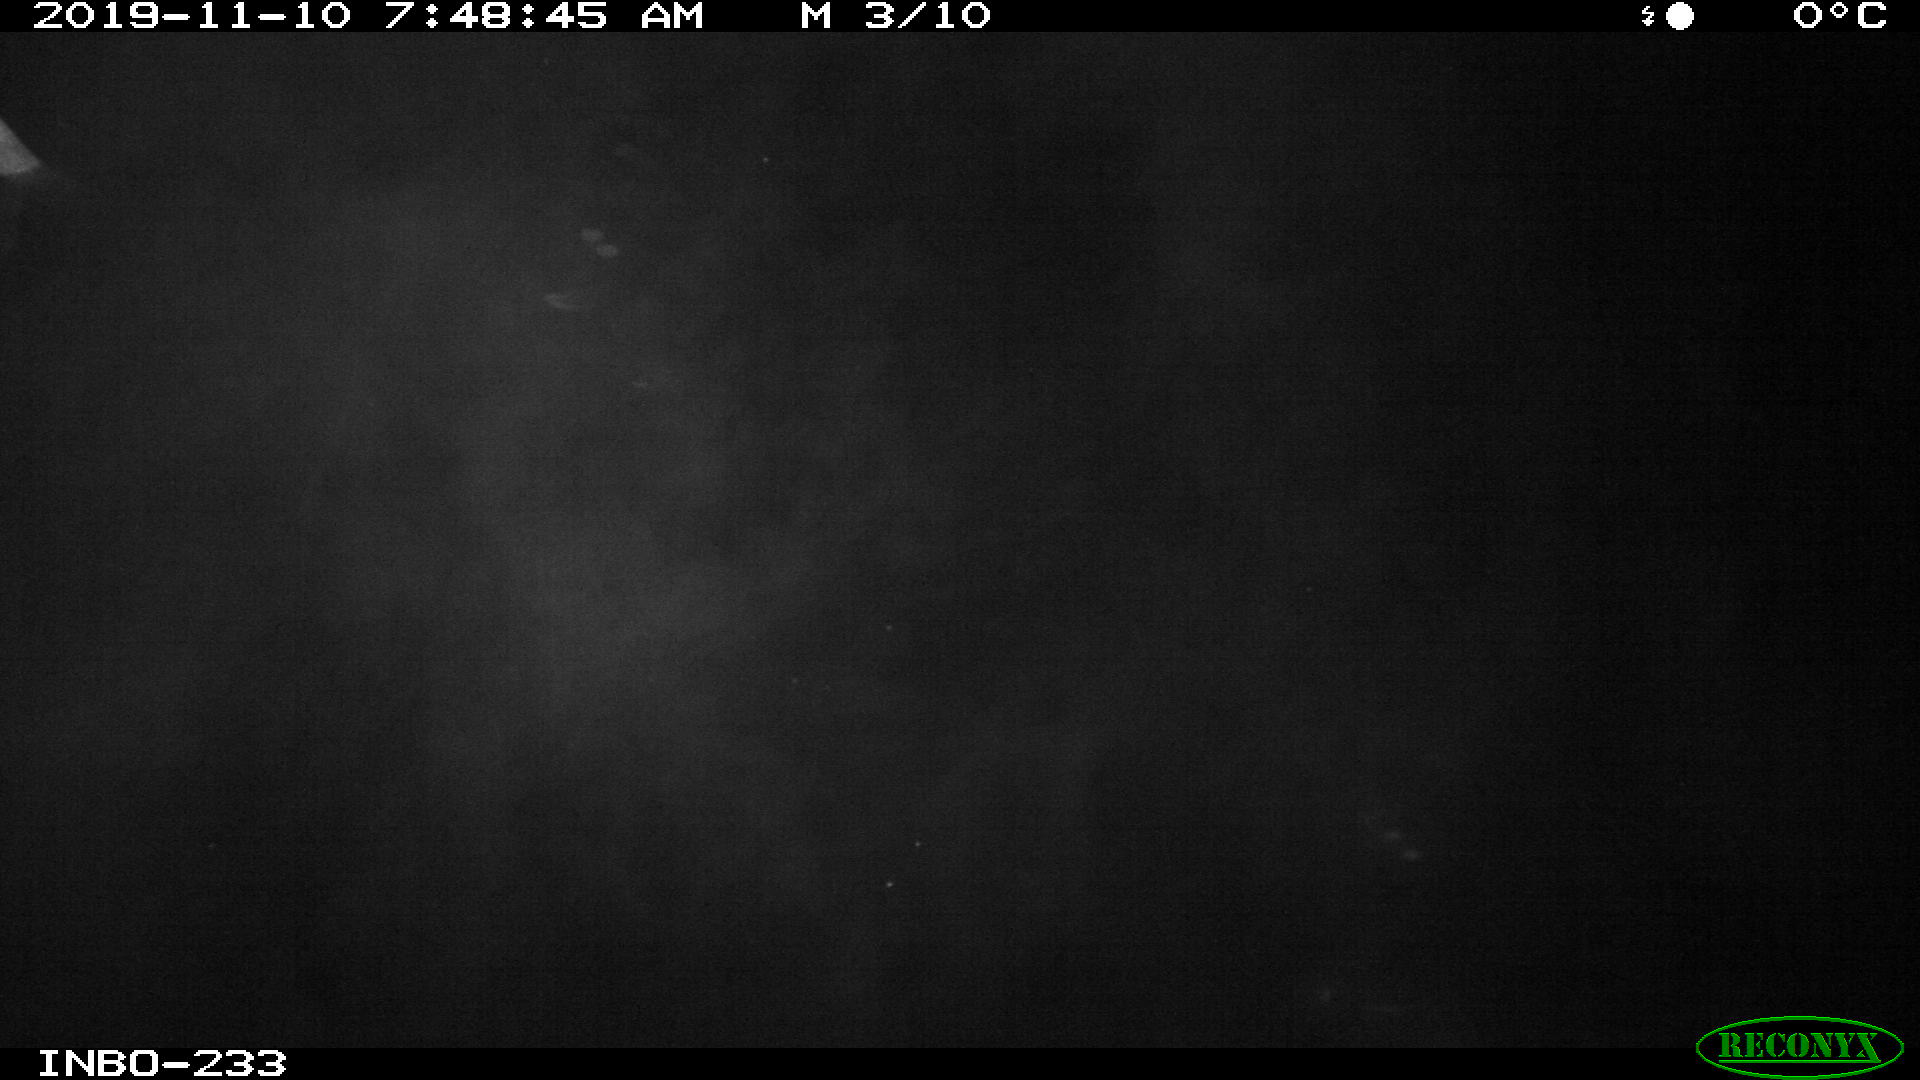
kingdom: Animalia
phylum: Chordata
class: Aves
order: Anseriformes
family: Anatidae
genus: Anas
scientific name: Anas platyrhynchos
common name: Mallard
